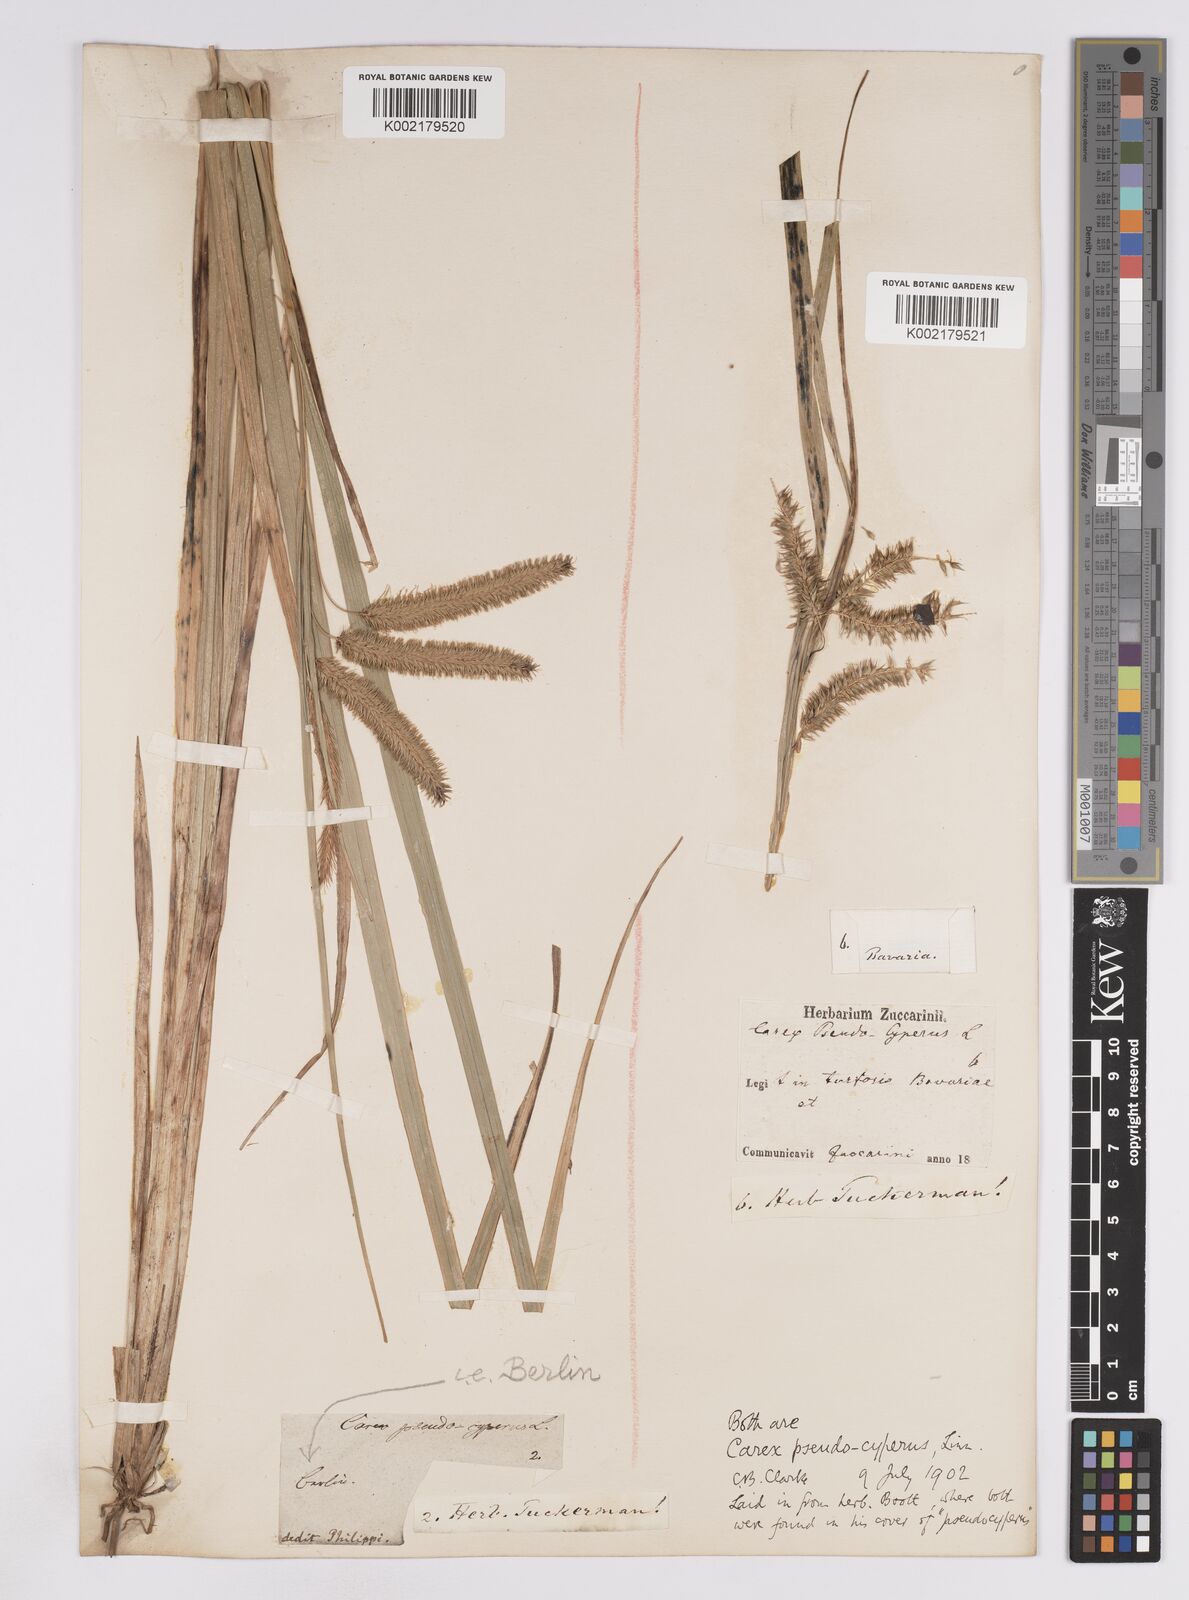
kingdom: Plantae
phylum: Tracheophyta
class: Liliopsida
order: Poales
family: Cyperaceae
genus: Carex
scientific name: Carex pseudocyperus
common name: Cyperus sedge
